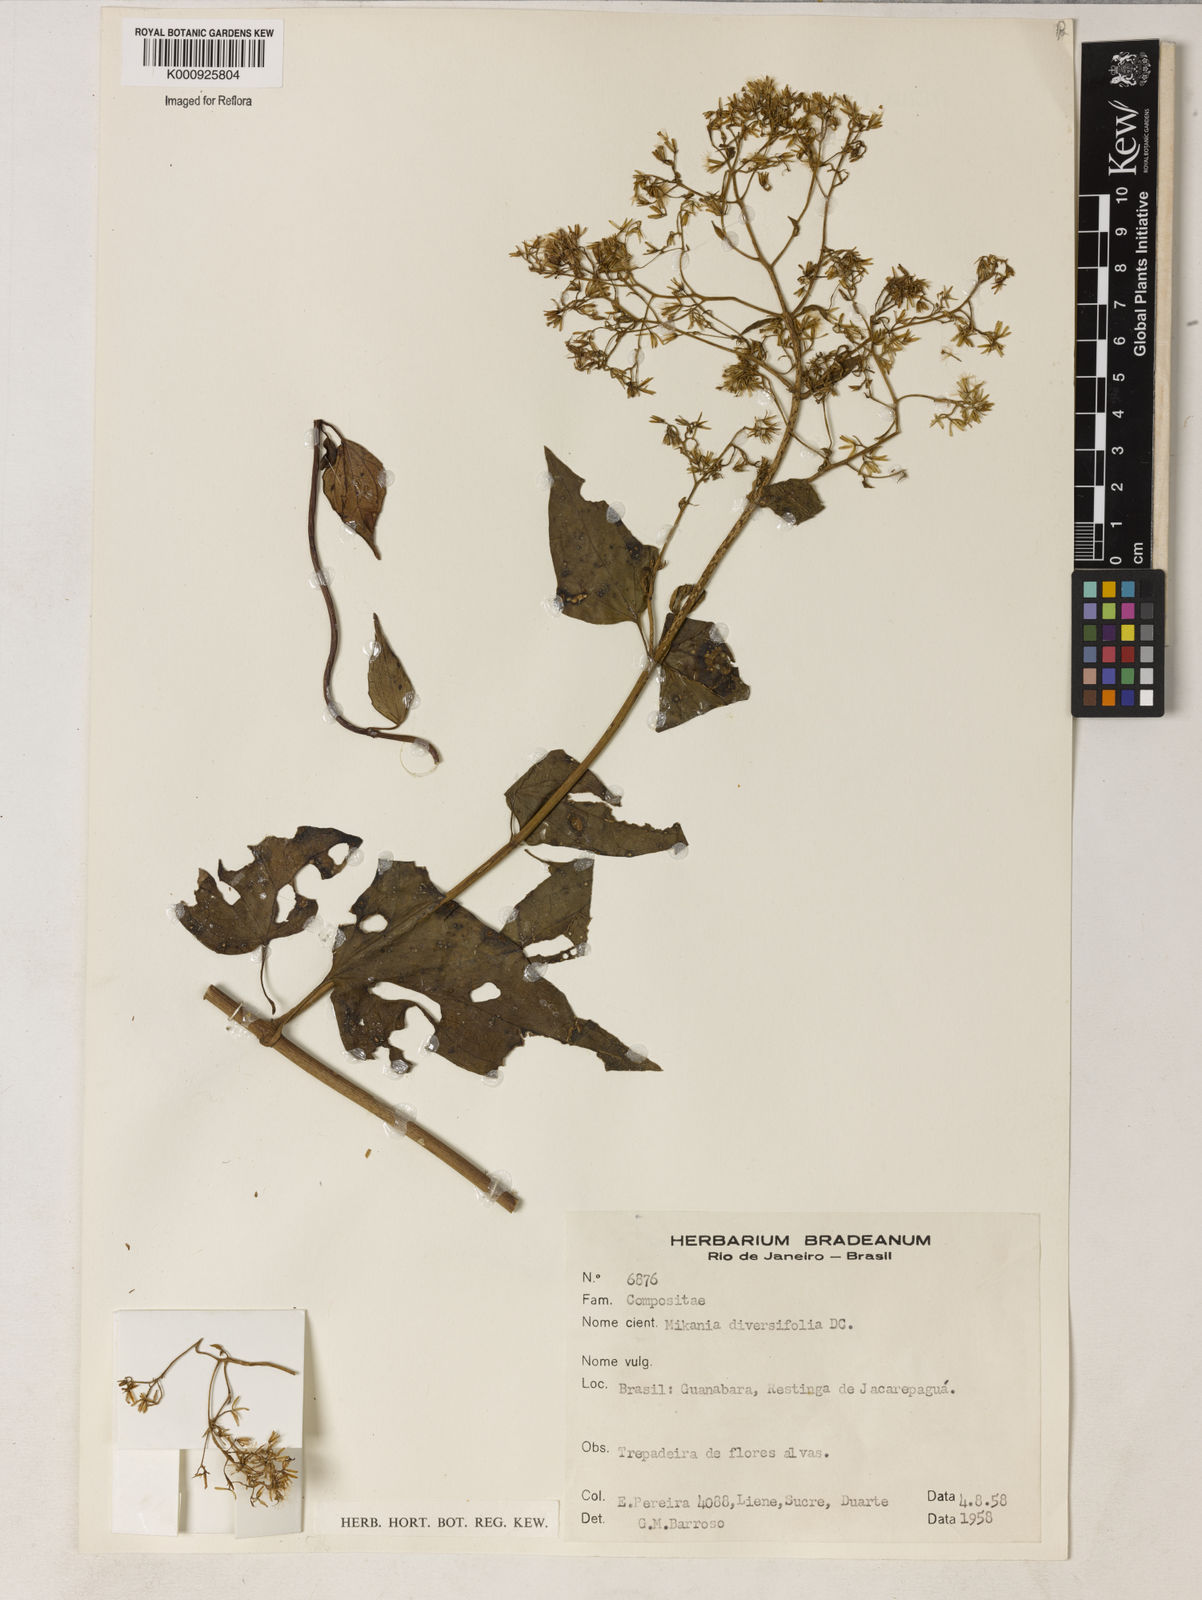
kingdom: Plantae
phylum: Tracheophyta
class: Magnoliopsida
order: Asterales
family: Asteraceae
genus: Mikania
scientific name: Mikania biformis
